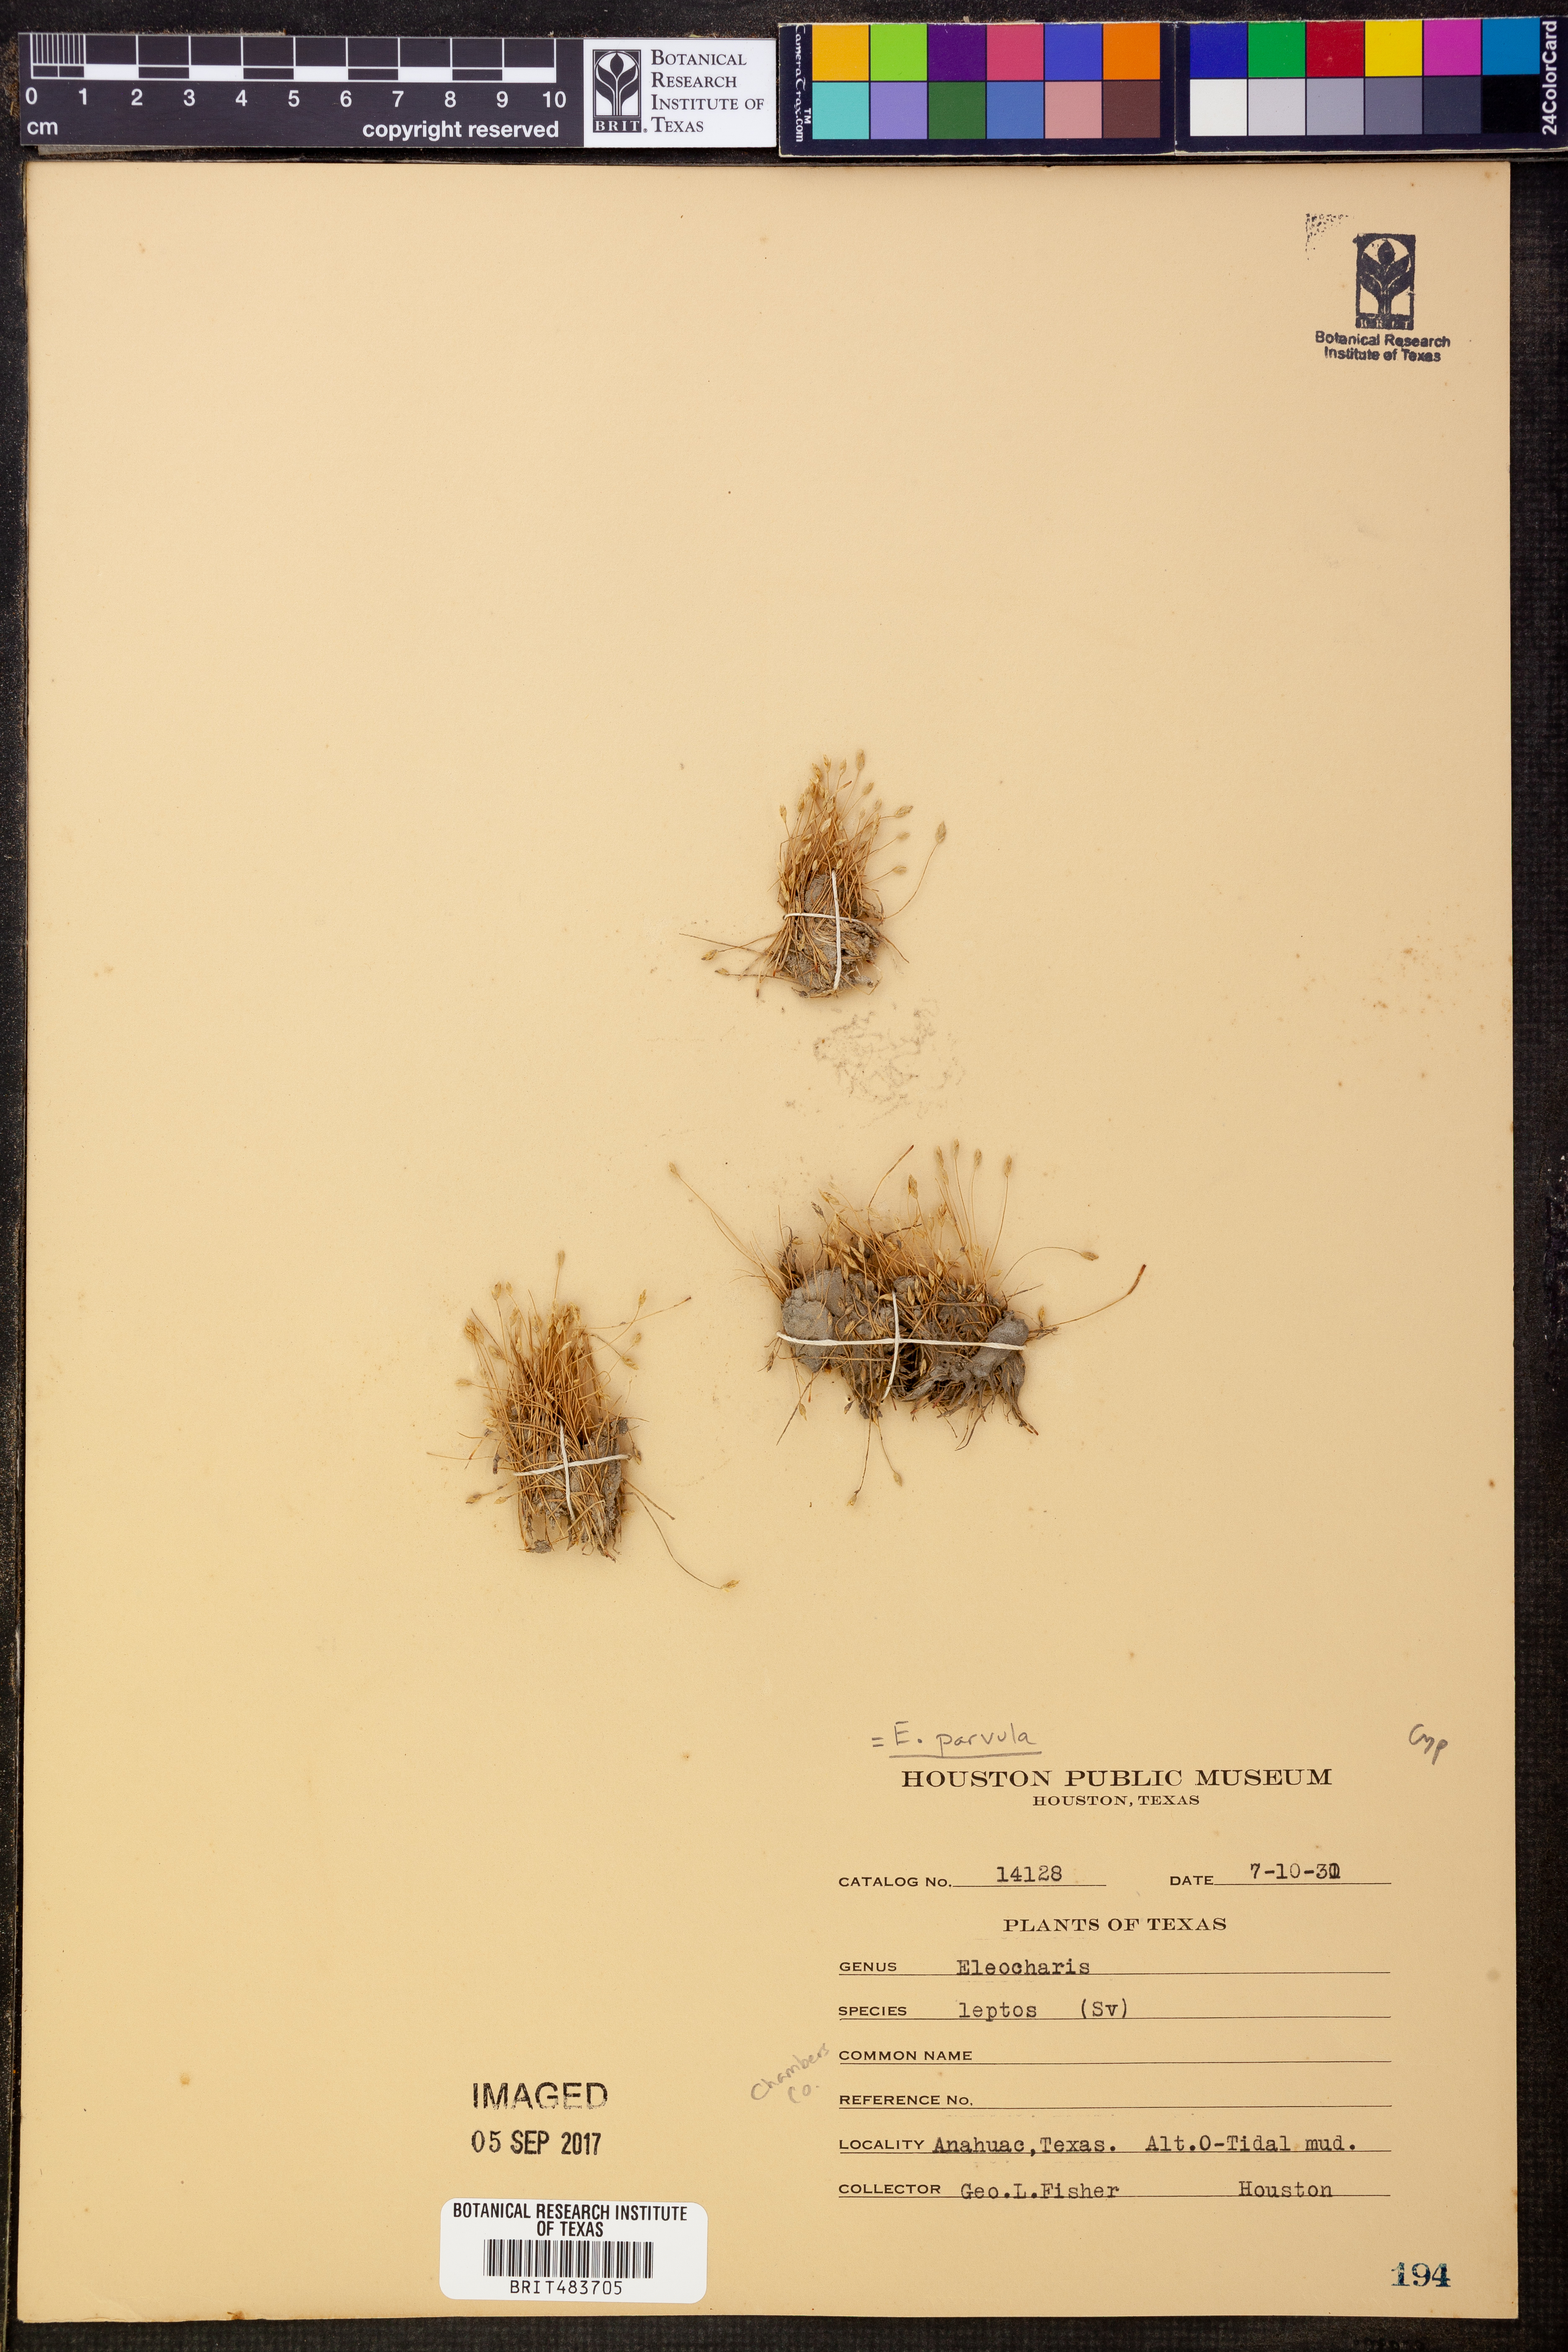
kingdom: Plantae
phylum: Tracheophyta
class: Liliopsida
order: Poales
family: Cyperaceae
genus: Eleocharis
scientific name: Eleocharis parvula
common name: Dwarf spike-rush
